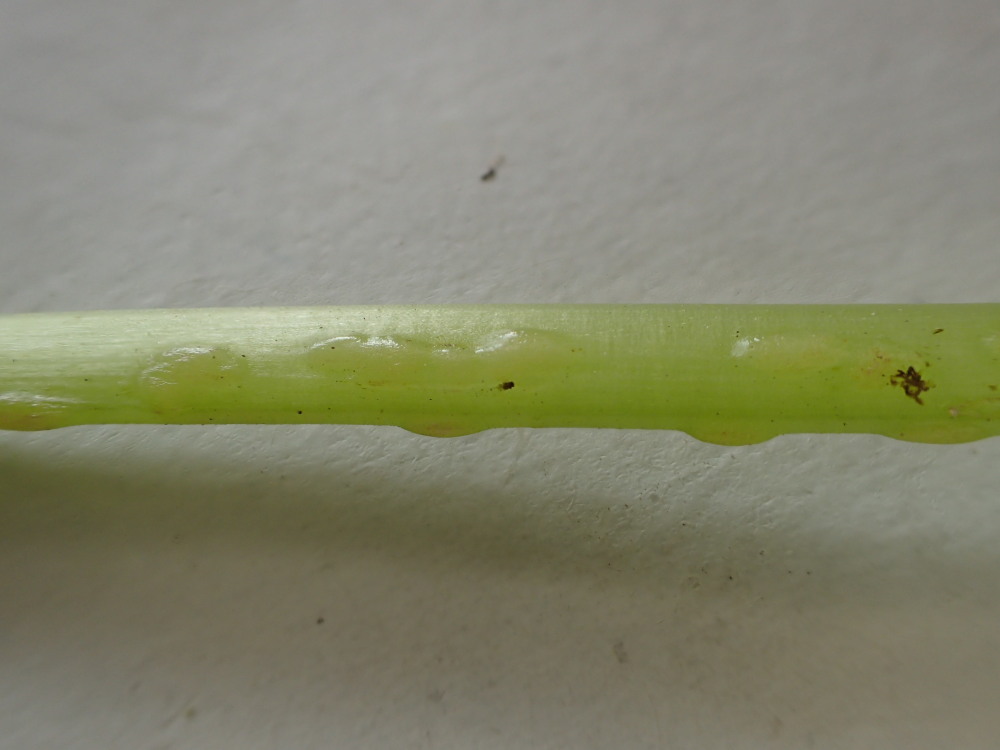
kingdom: Fungi
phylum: Ascomycota
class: Taphrinomycetes
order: Taphrinales
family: Taphrinaceae
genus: Protomyces
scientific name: Protomyces macrosporus
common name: skvalderkål-vablesæk
